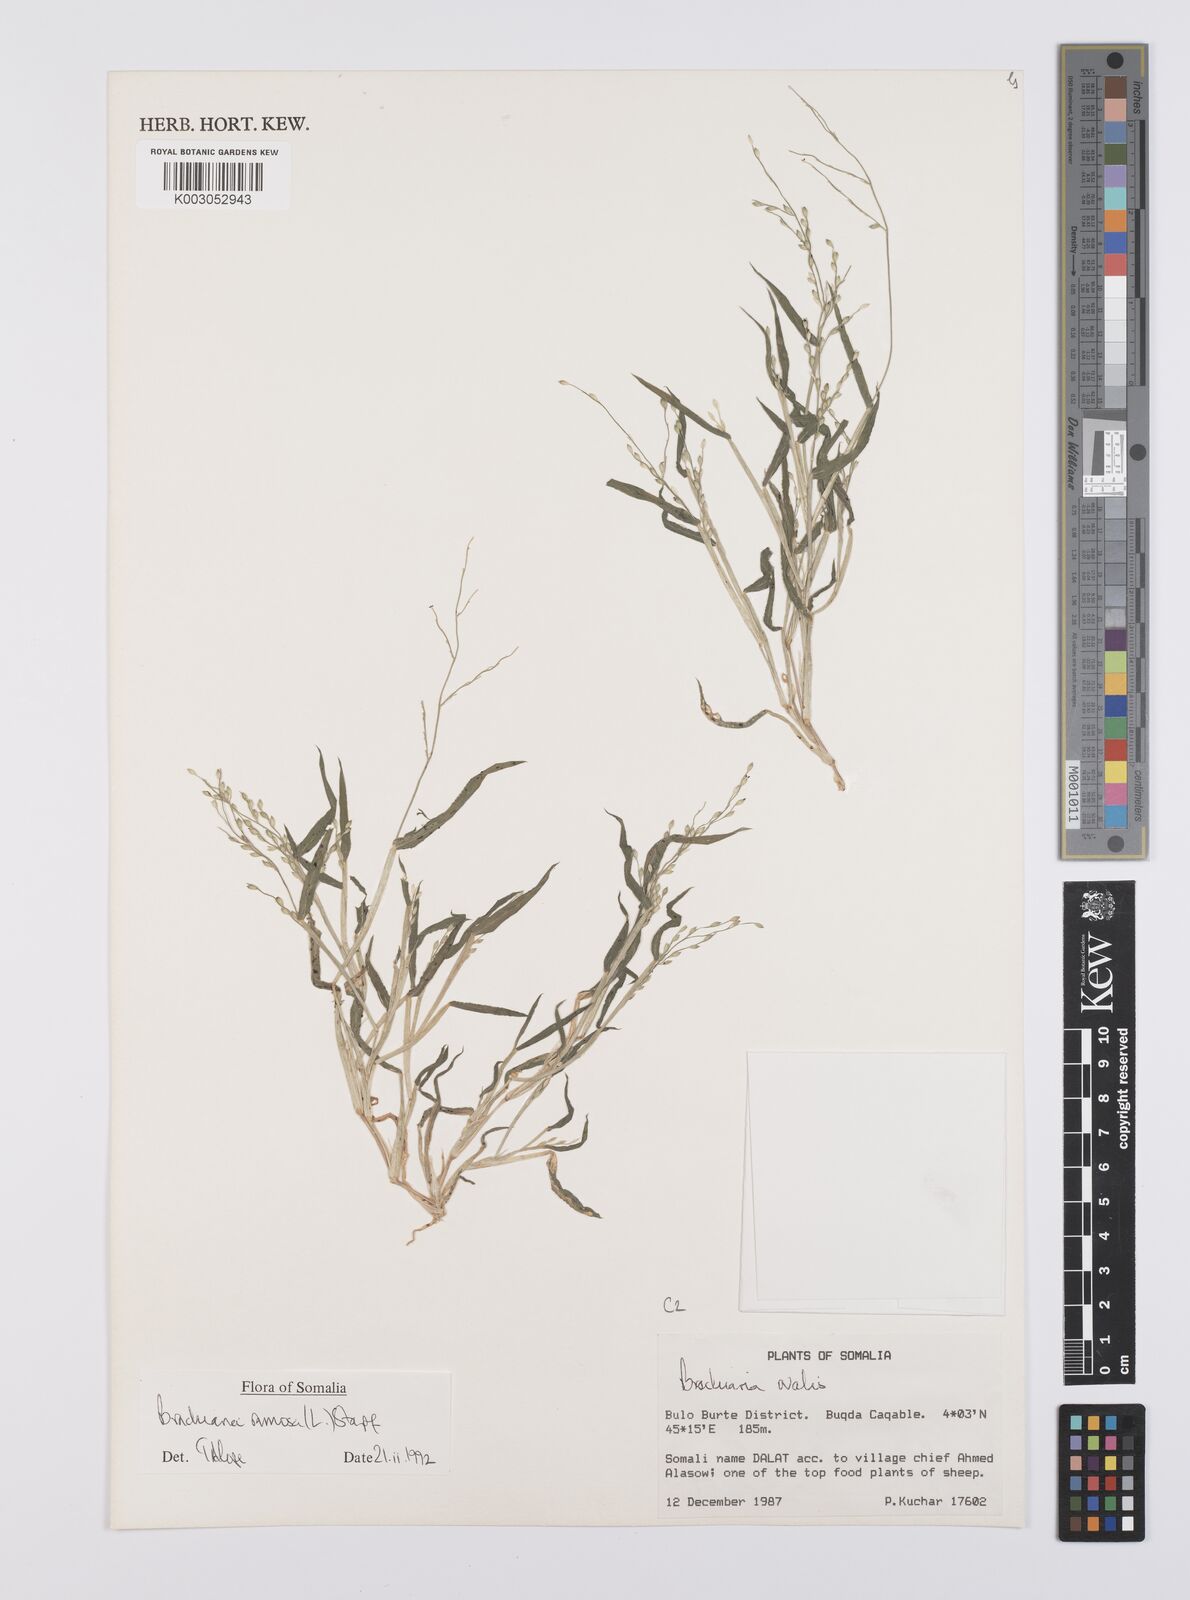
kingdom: Plantae
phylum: Tracheophyta
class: Liliopsida
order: Poales
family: Poaceae
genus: Urochloa
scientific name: Urochloa ramosa
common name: Browntop millet
